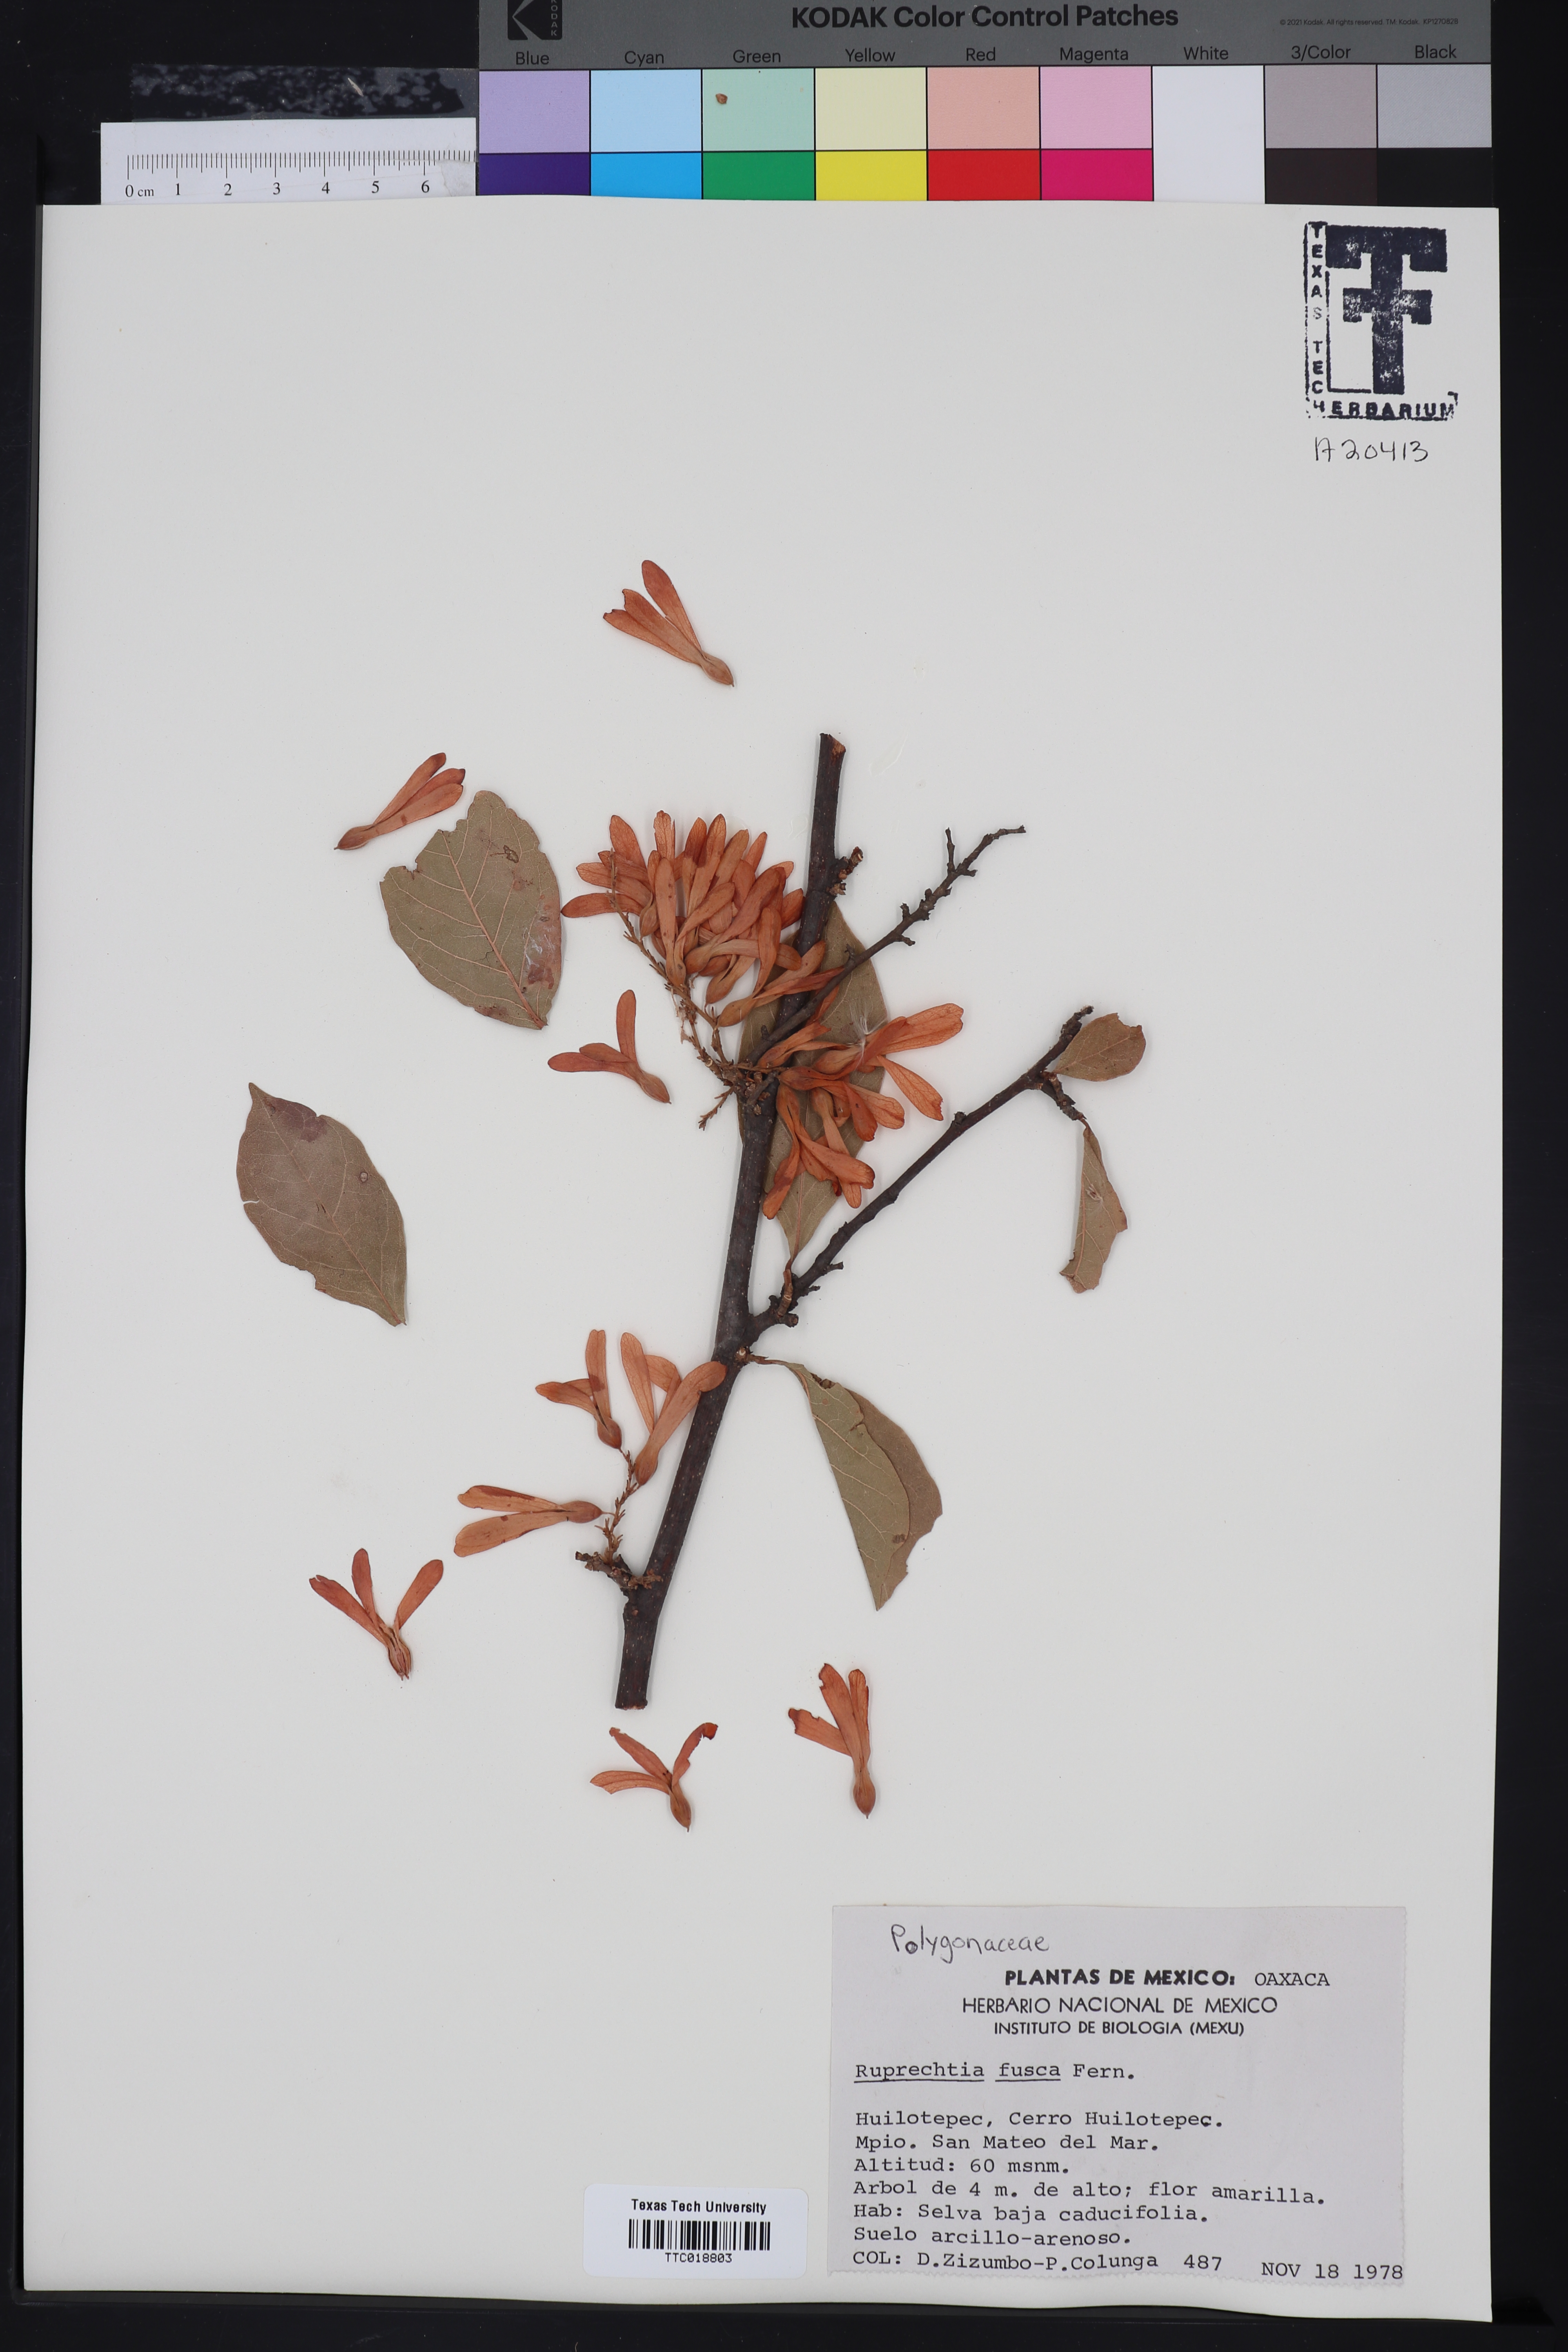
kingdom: Plantae
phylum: Tracheophyta
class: Magnoliopsida
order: Caryophyllales
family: Polygonaceae
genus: Ruprechtia
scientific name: Ruprechtia fusca
